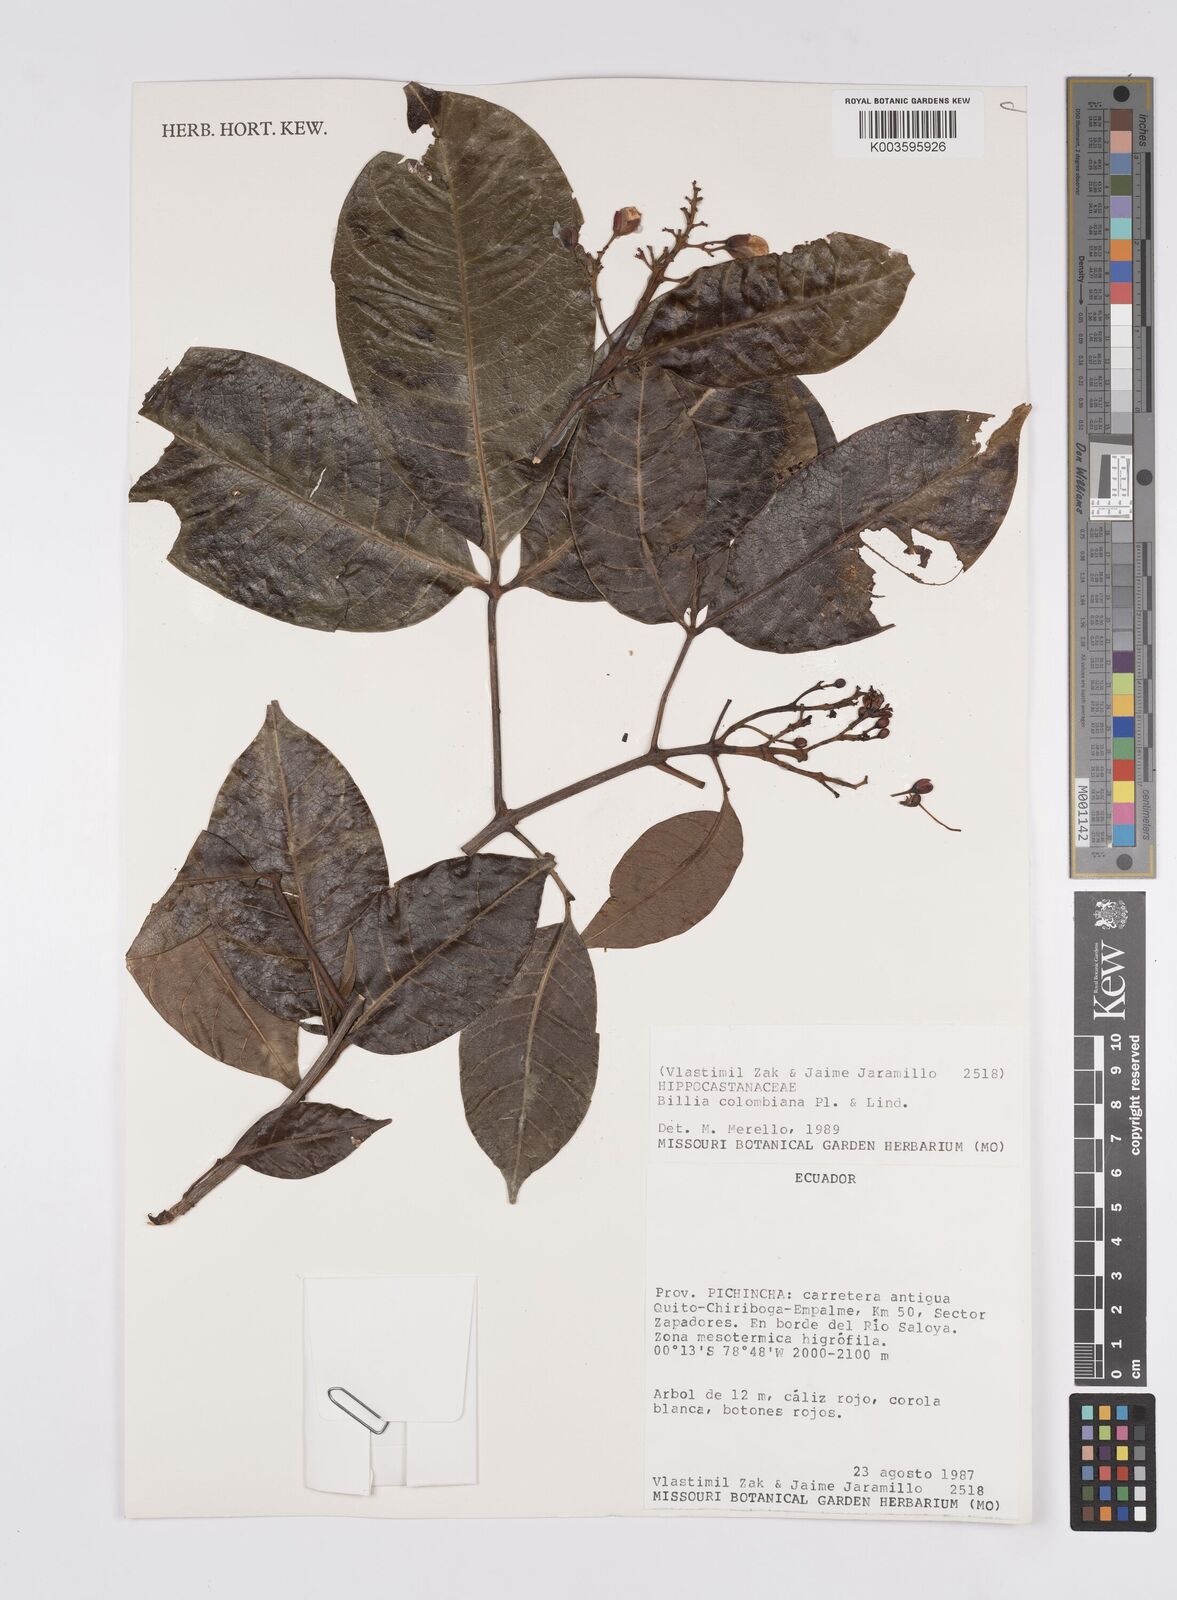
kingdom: Plantae
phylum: Tracheophyta
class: Magnoliopsida
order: Sapindales
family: Sapindaceae
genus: Billia
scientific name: Billia
